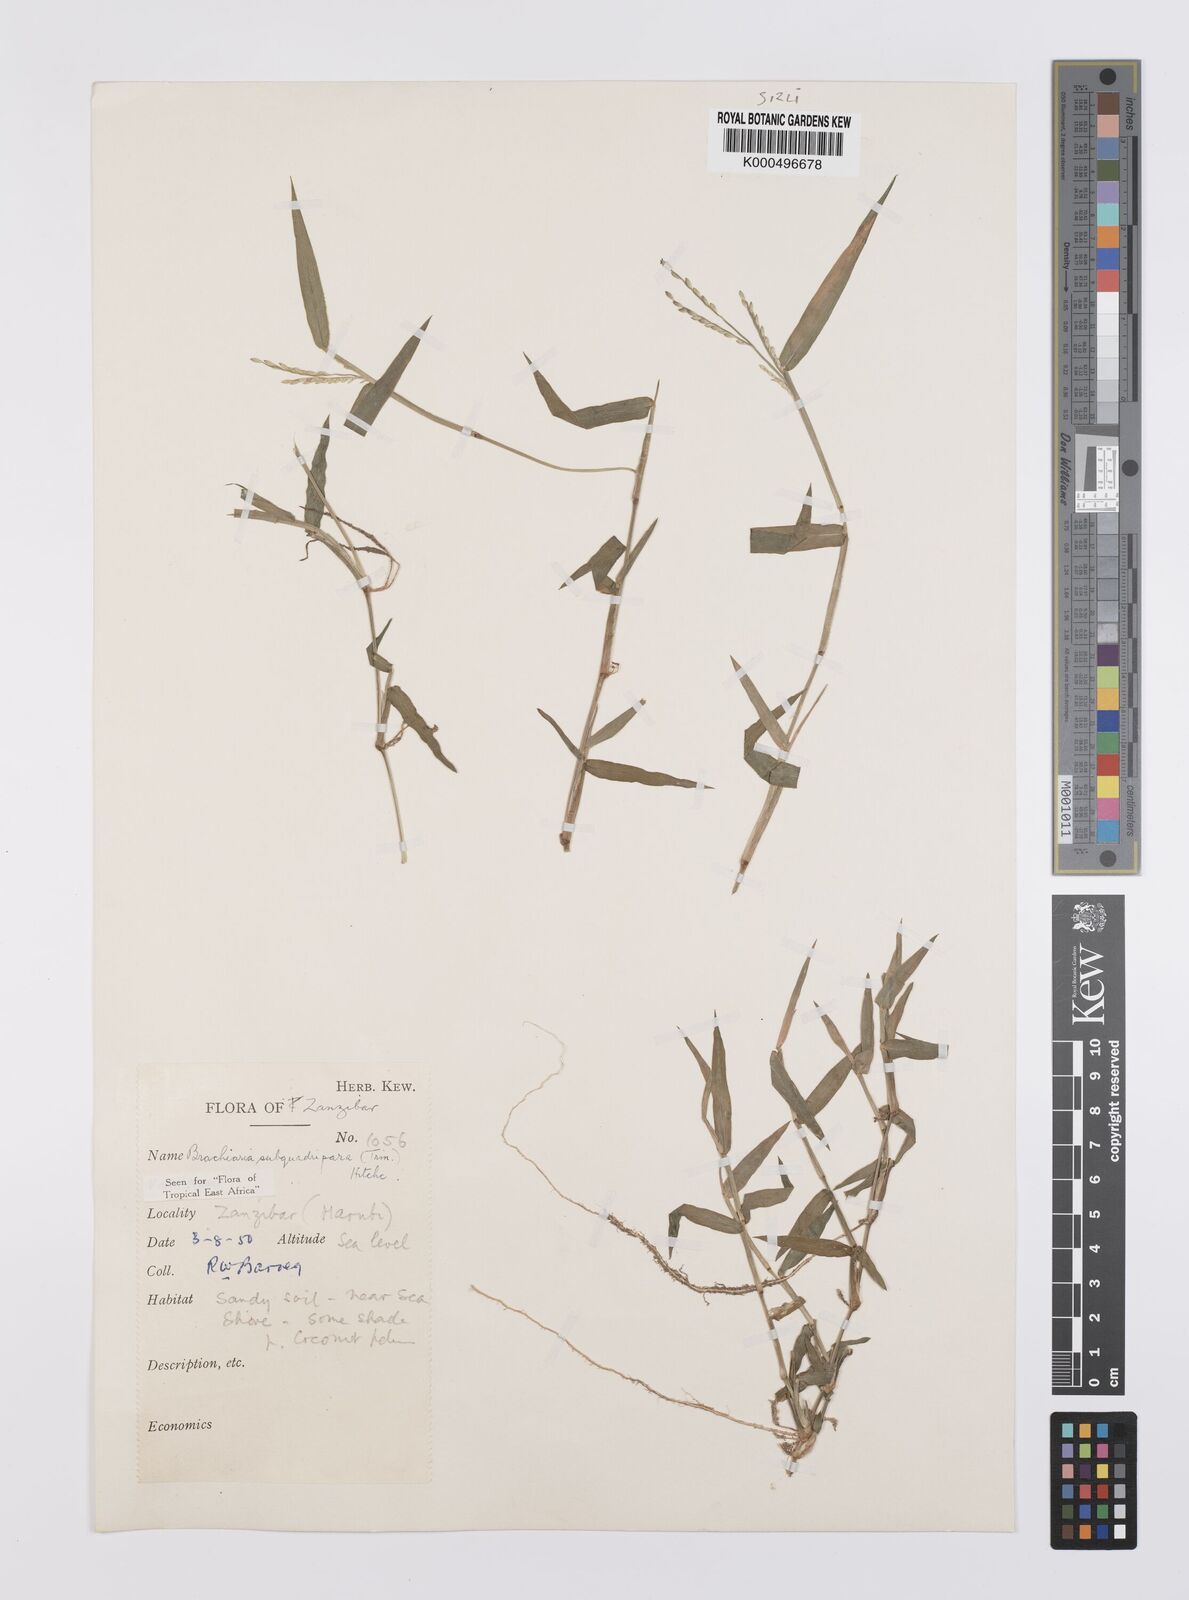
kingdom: Plantae
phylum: Tracheophyta
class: Liliopsida
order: Poales
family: Poaceae
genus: Urochloa
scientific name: Urochloa subquadripara
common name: Armgrass millet
